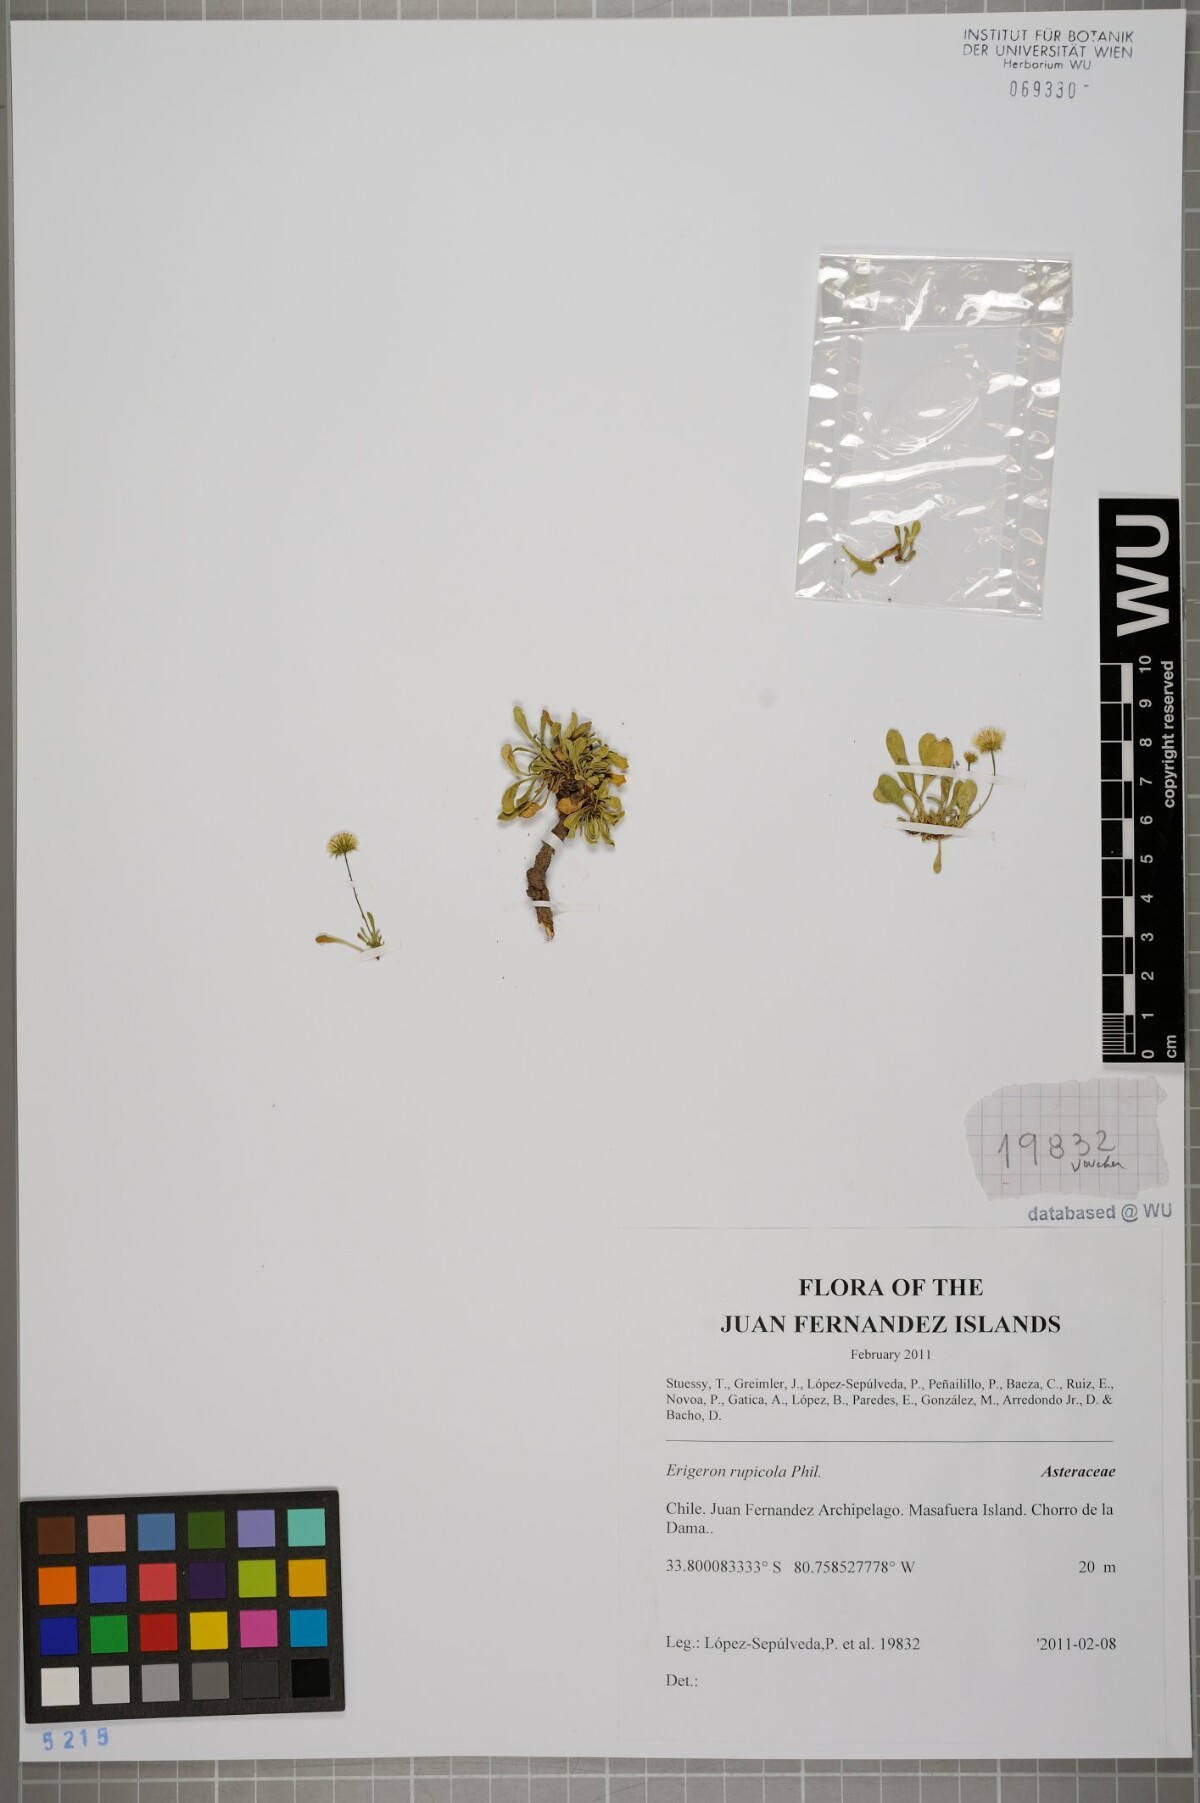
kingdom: Plantae
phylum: Tracheophyta
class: Magnoliopsida
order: Asterales
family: Asteraceae
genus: Erigeron
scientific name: Erigeron rupicola
